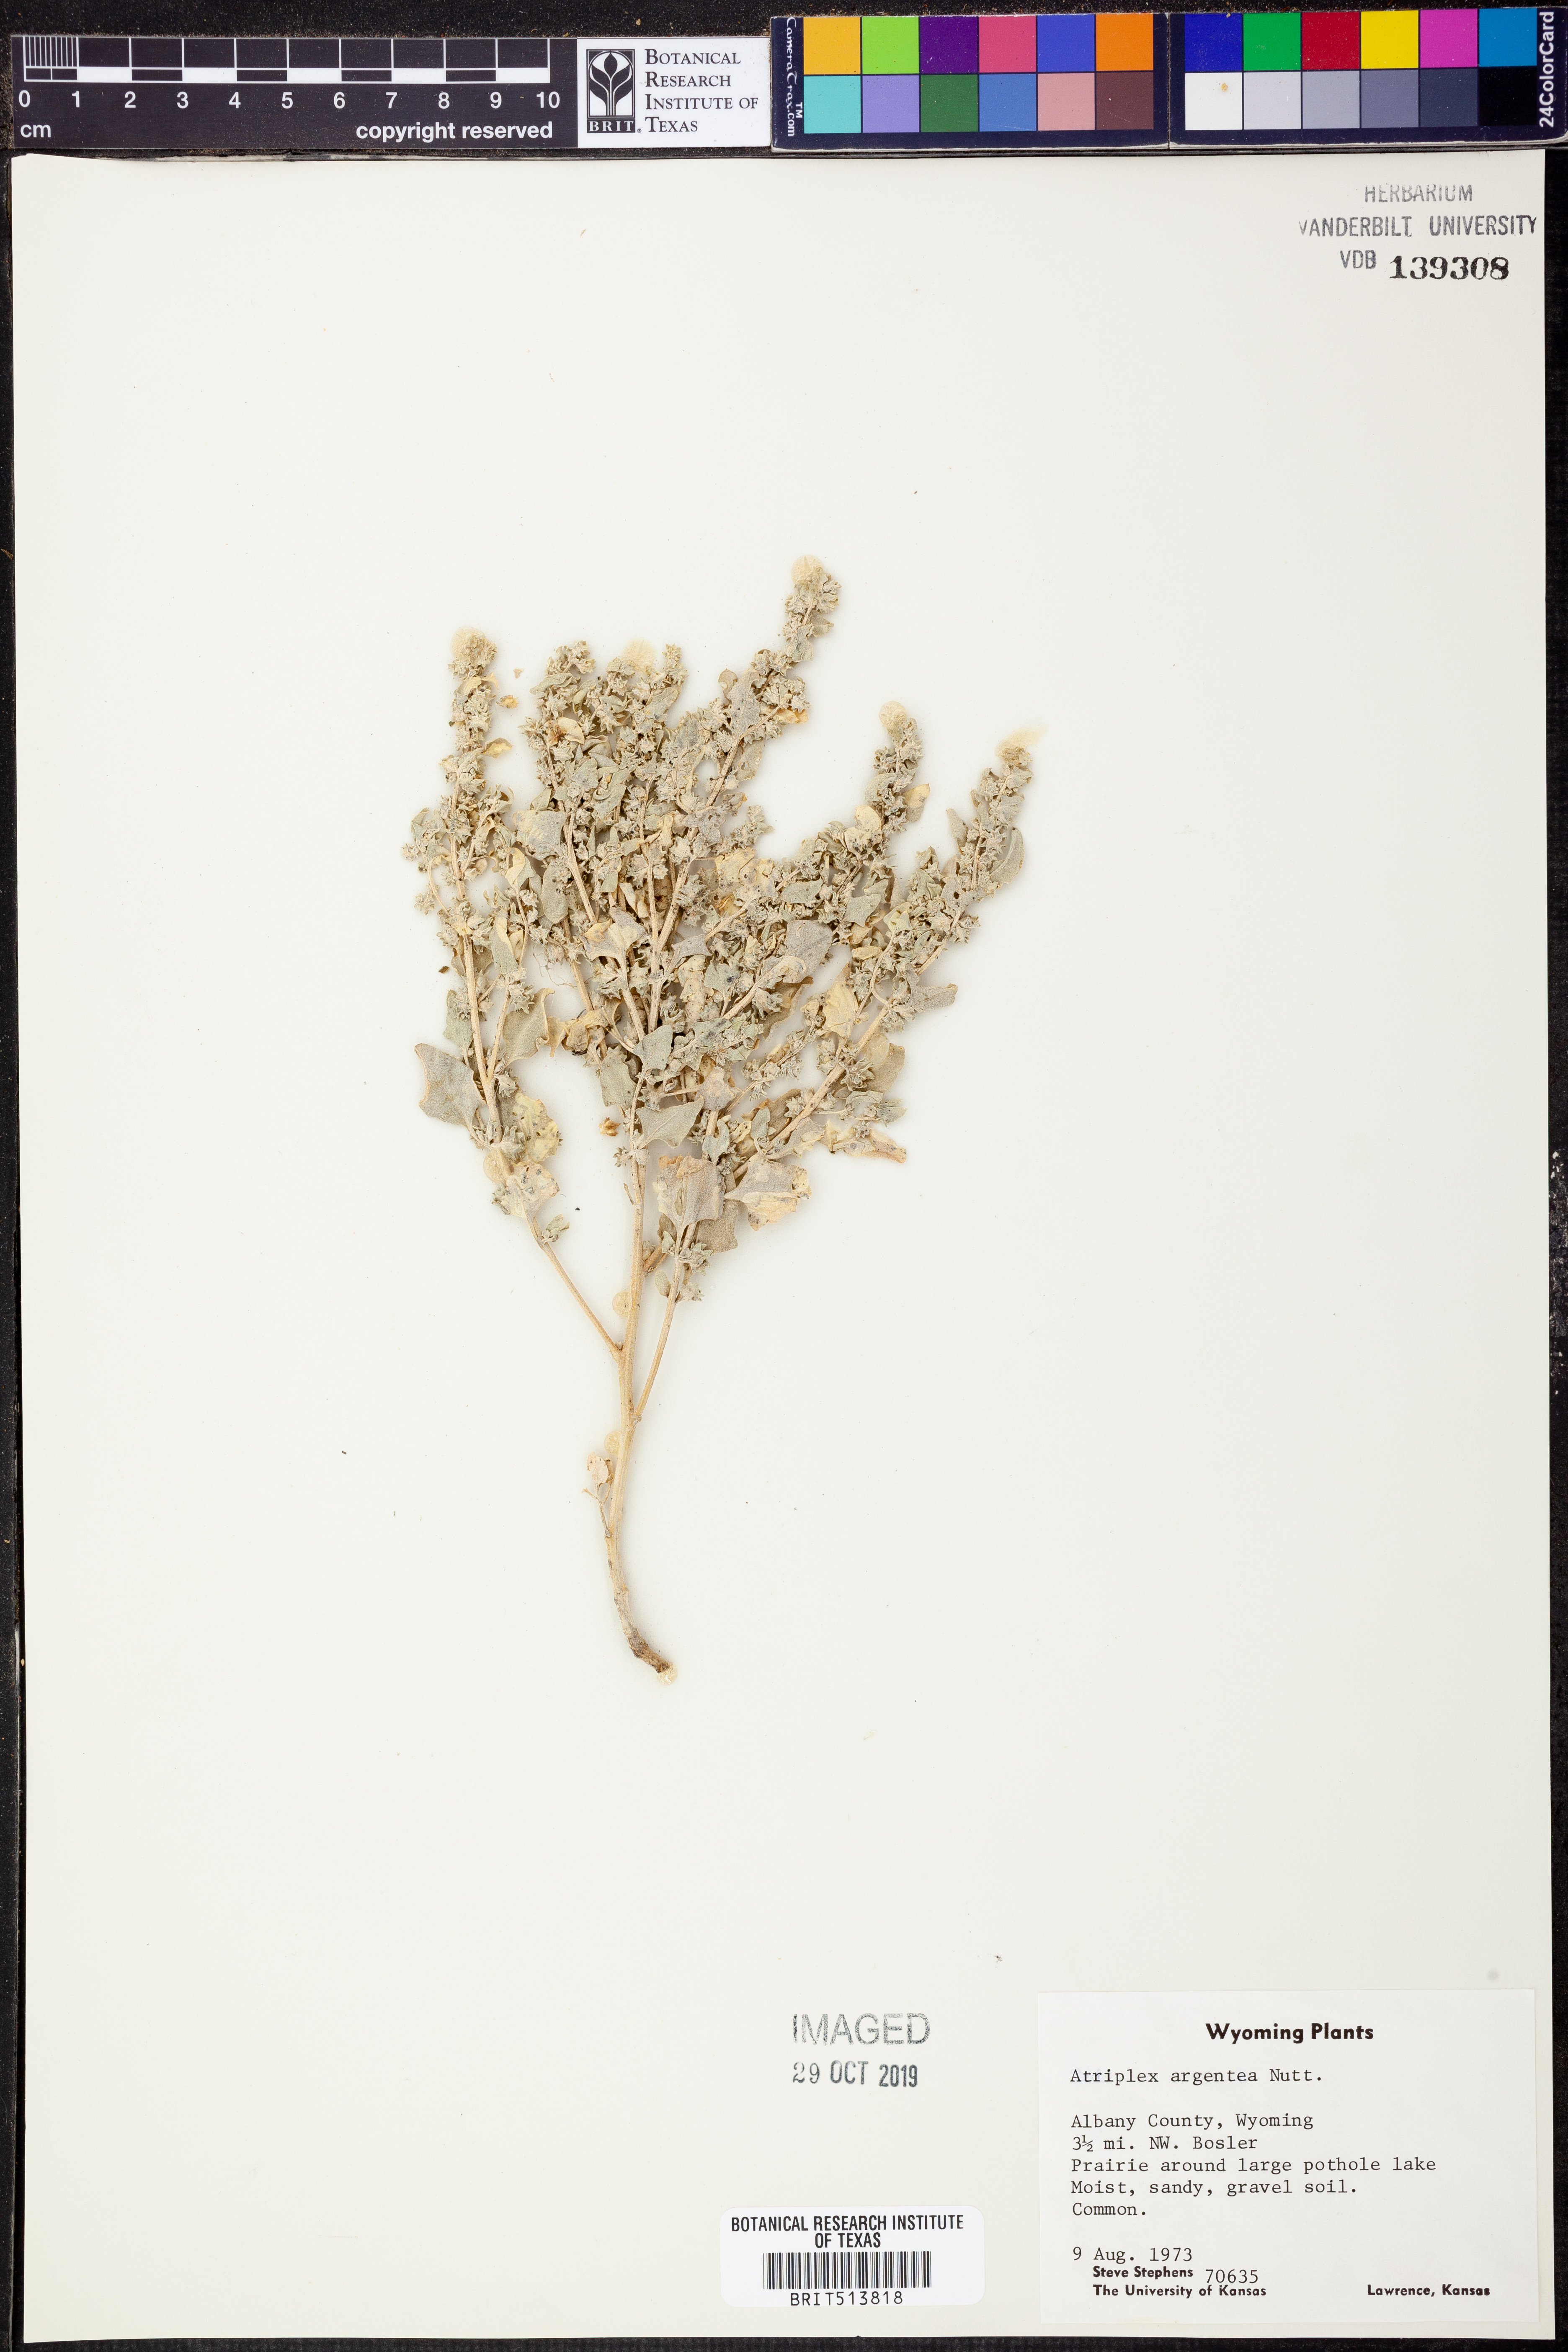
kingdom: Plantae
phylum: Tracheophyta
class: Magnoliopsida
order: Caryophyllales
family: Amaranthaceae
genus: Atriplex
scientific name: Atriplex argentea
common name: Silverscale
